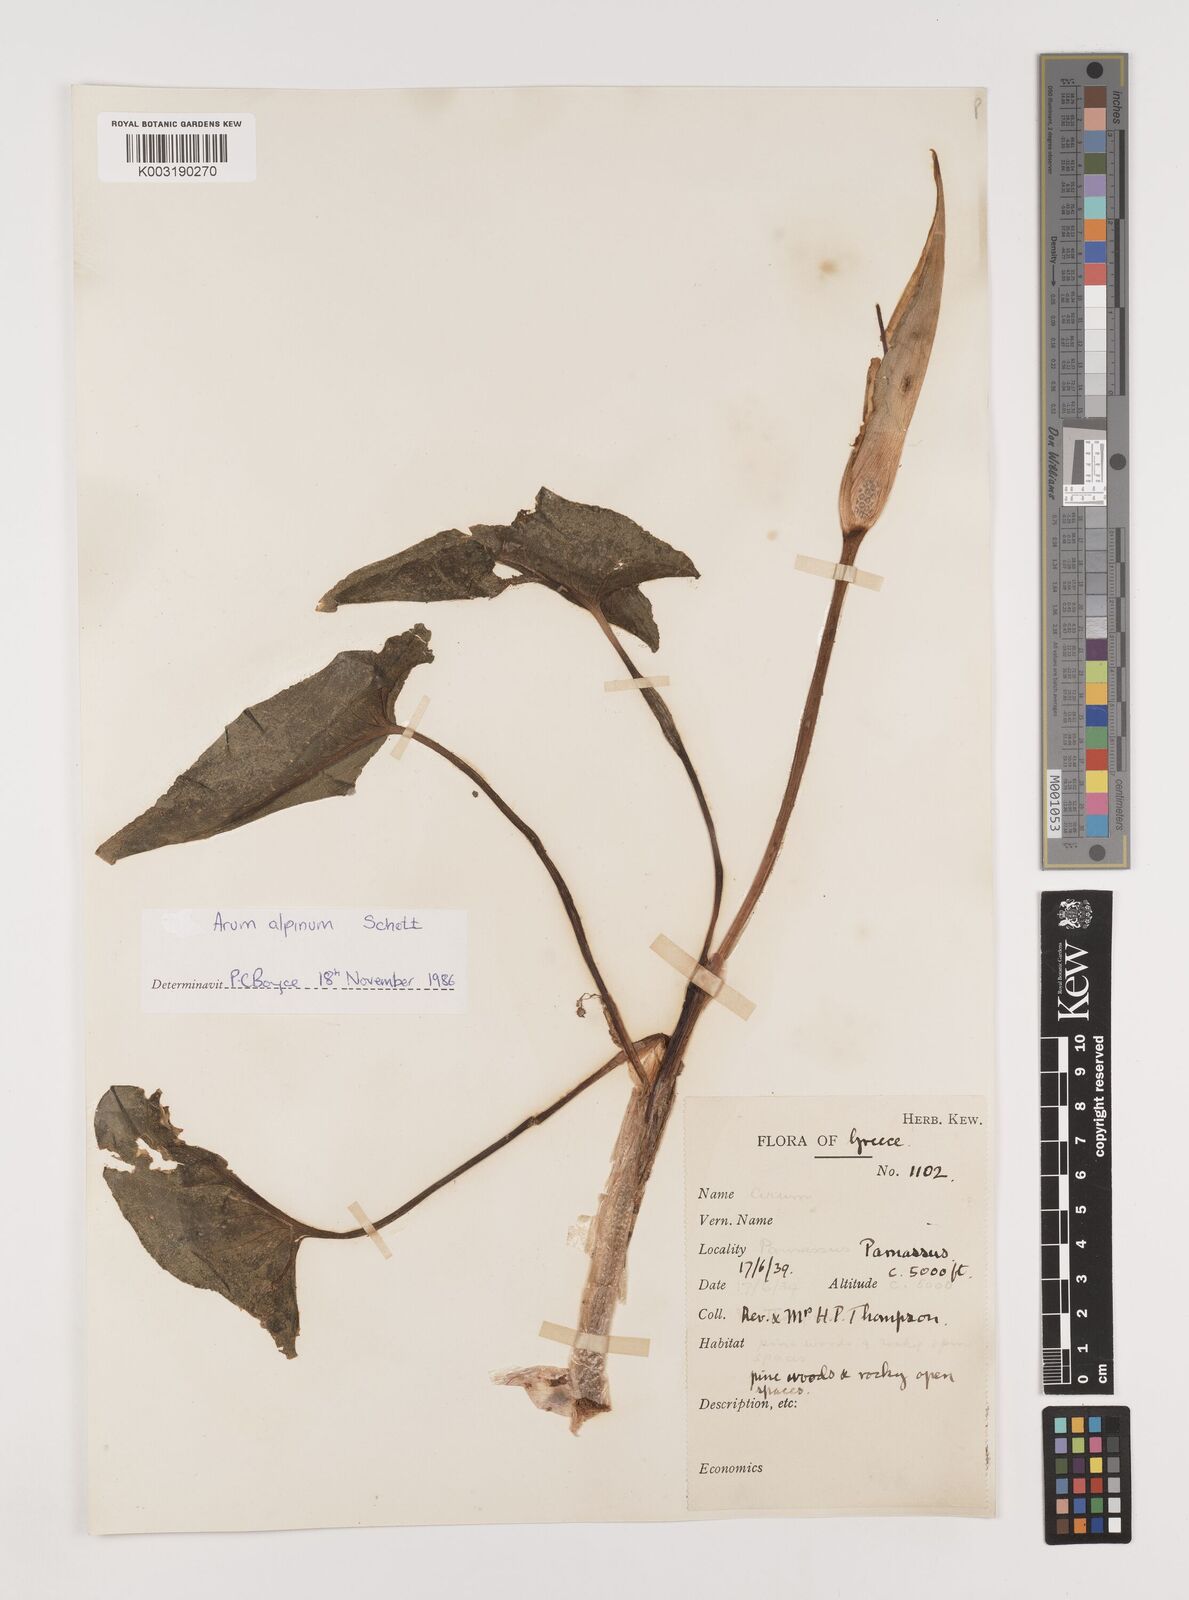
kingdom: Plantae
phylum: Tracheophyta
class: Liliopsida
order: Alismatales
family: Araceae
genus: Arum
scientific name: Arum cylindraceum
